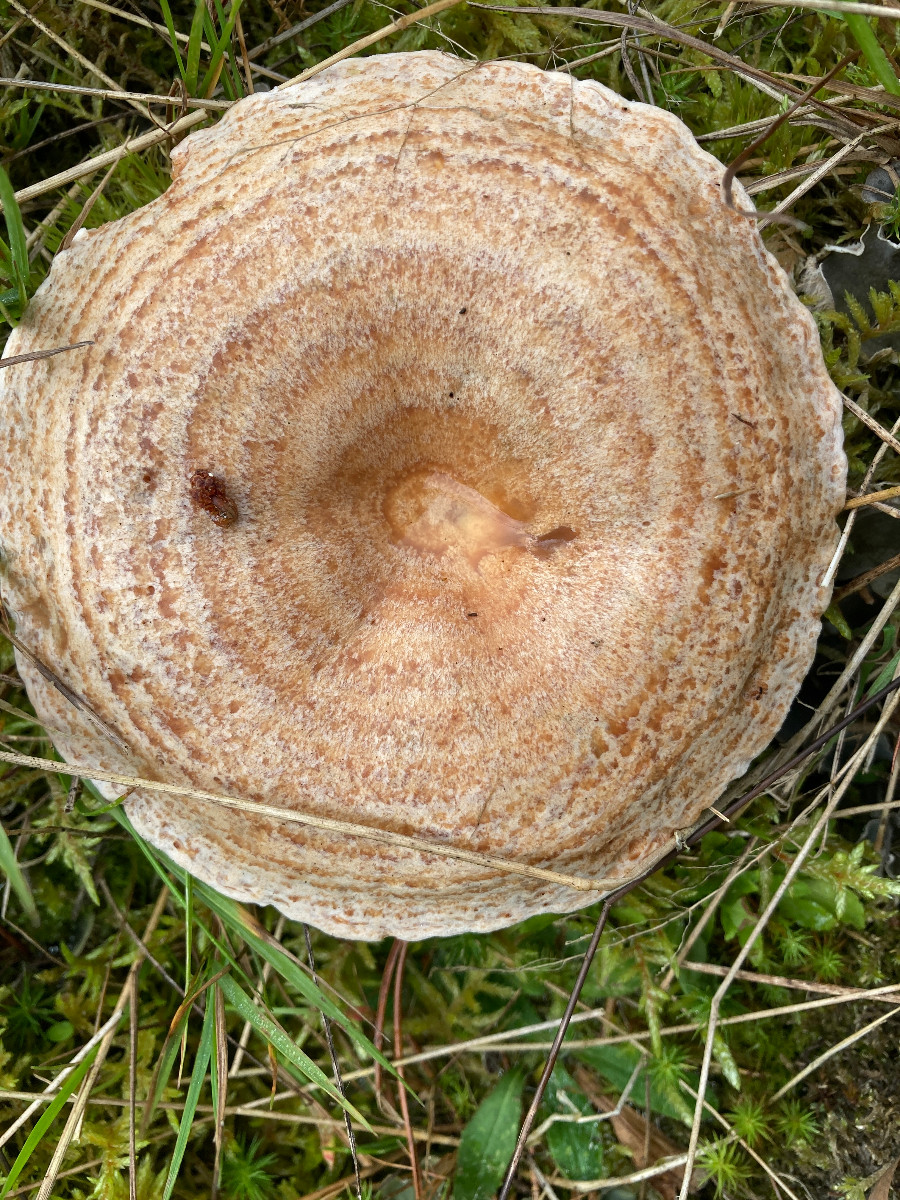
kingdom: Fungi
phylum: Basidiomycota
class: Agaricomycetes
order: Russulales
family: Russulaceae
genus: Lactarius
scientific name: Lactarius deliciosus
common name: velsmagende mælkehat
